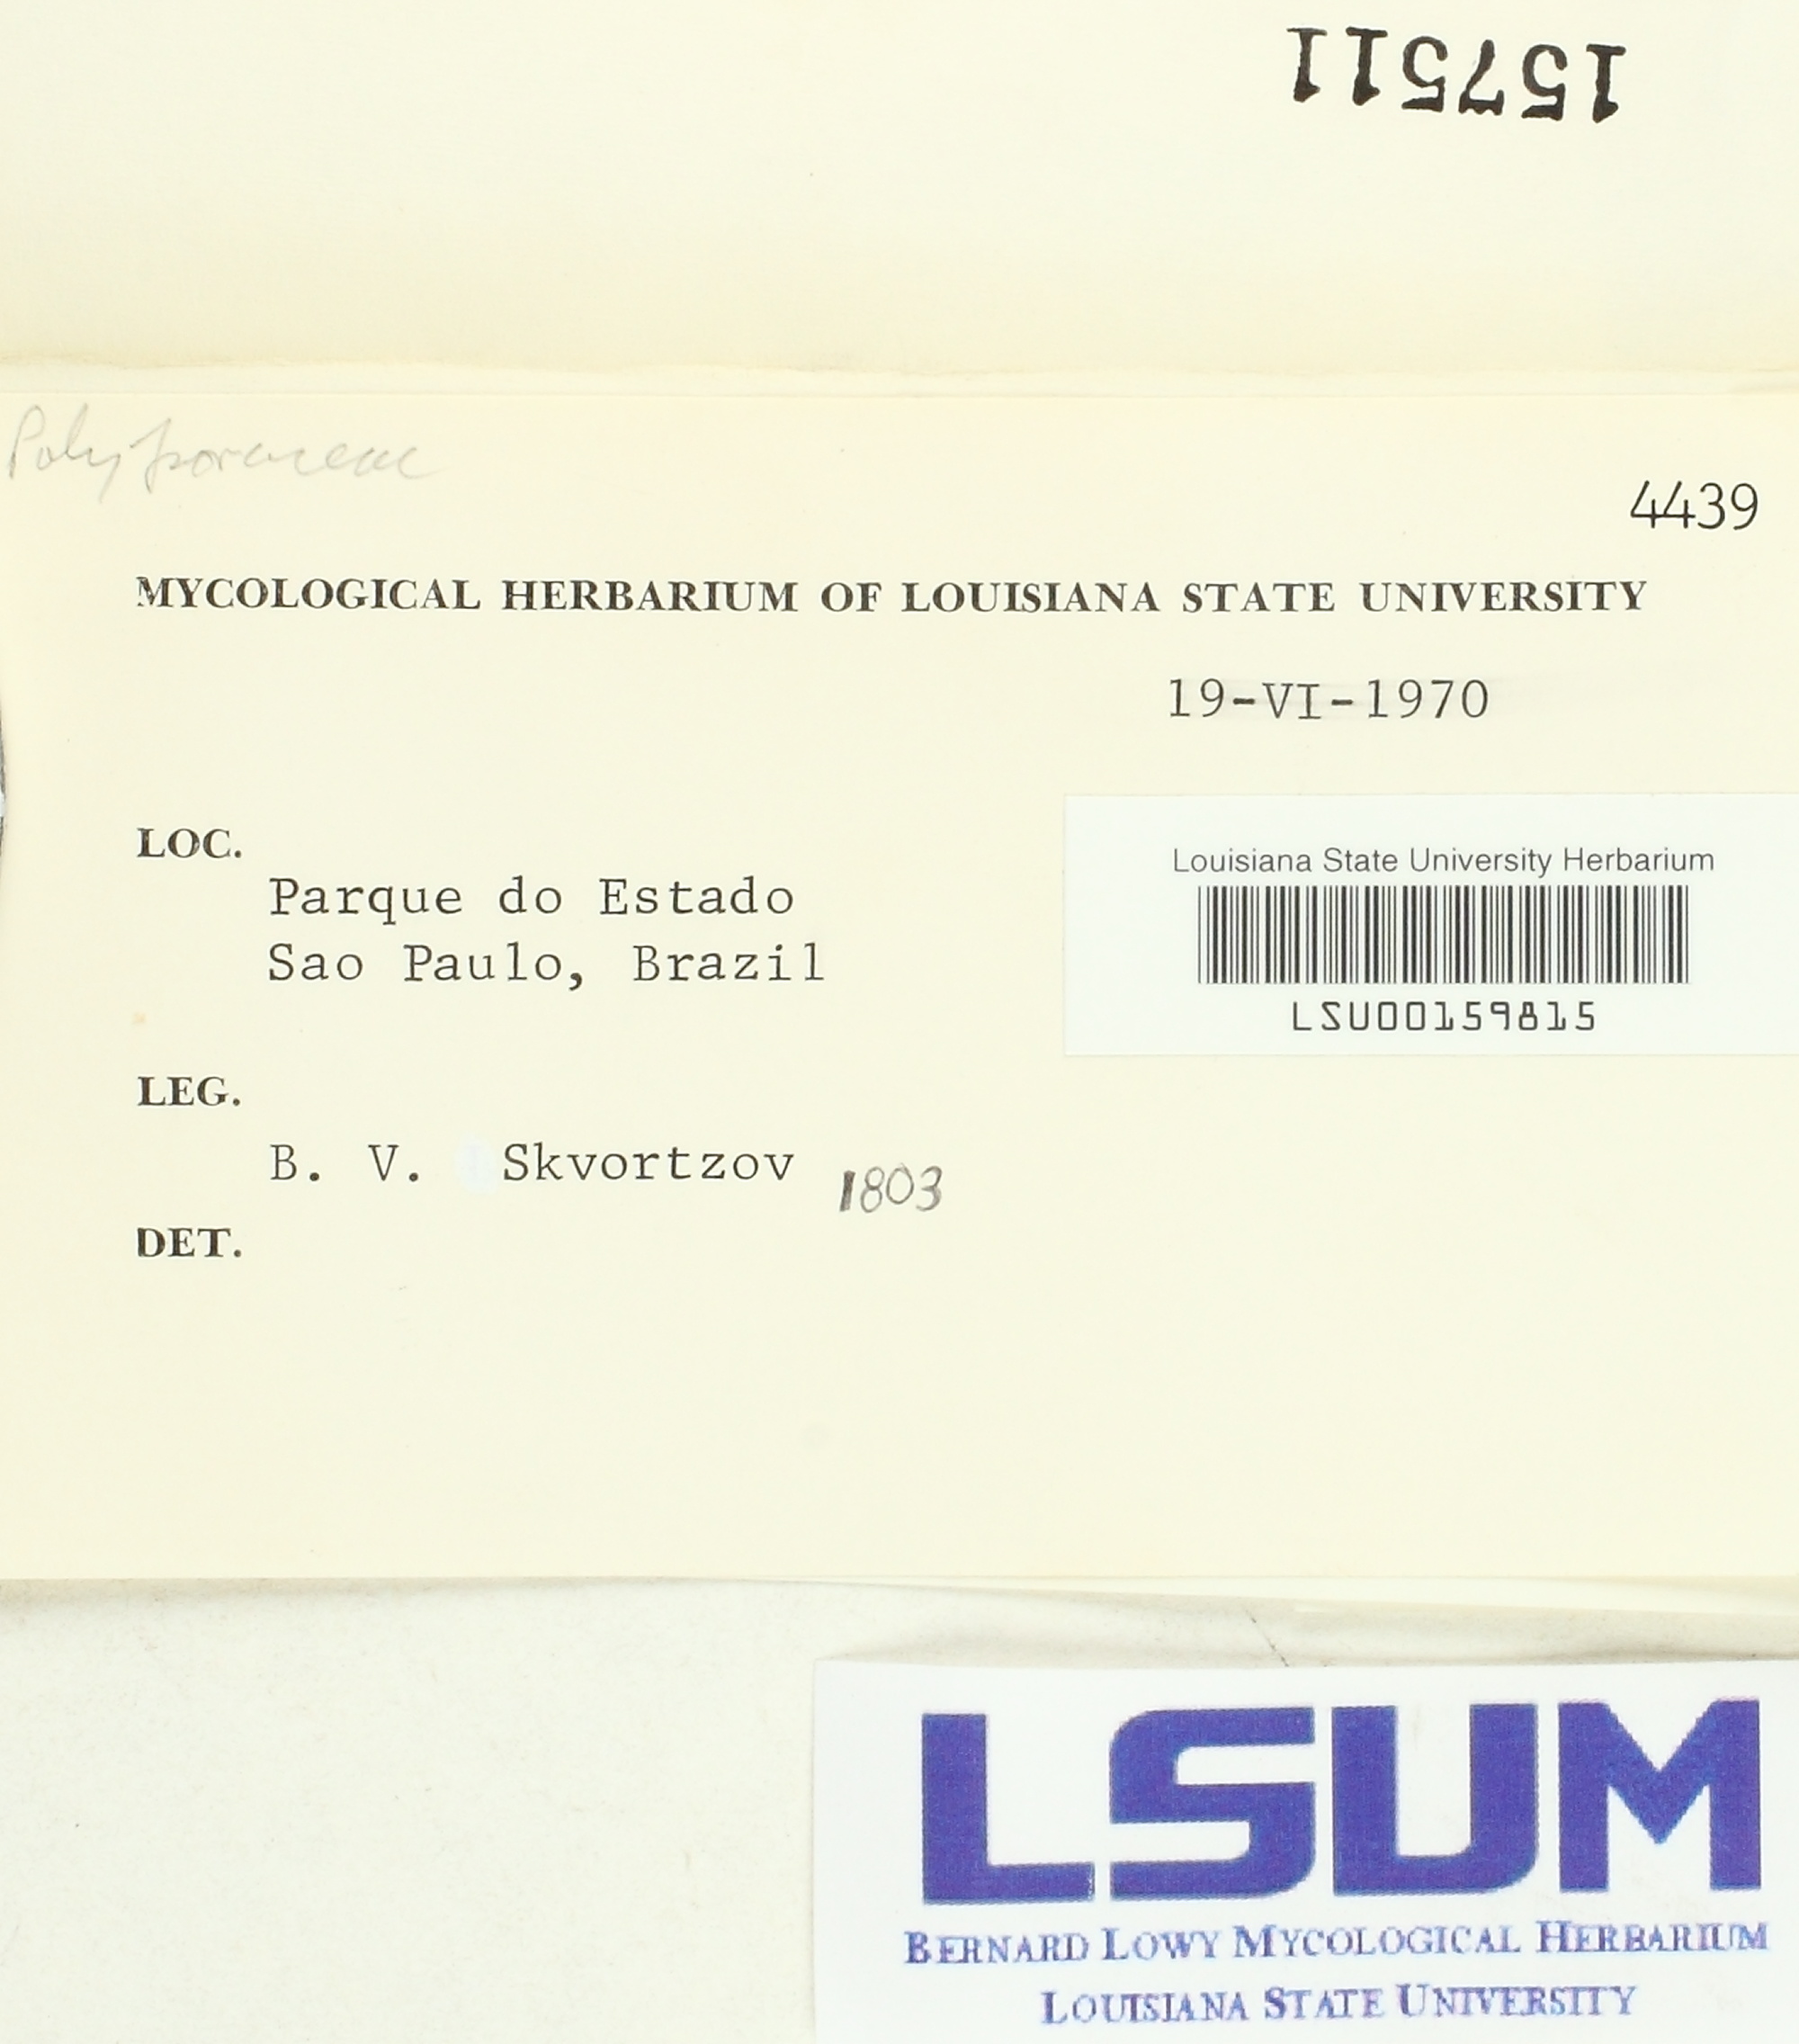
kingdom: Fungi
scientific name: Fungi
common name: Fungi
